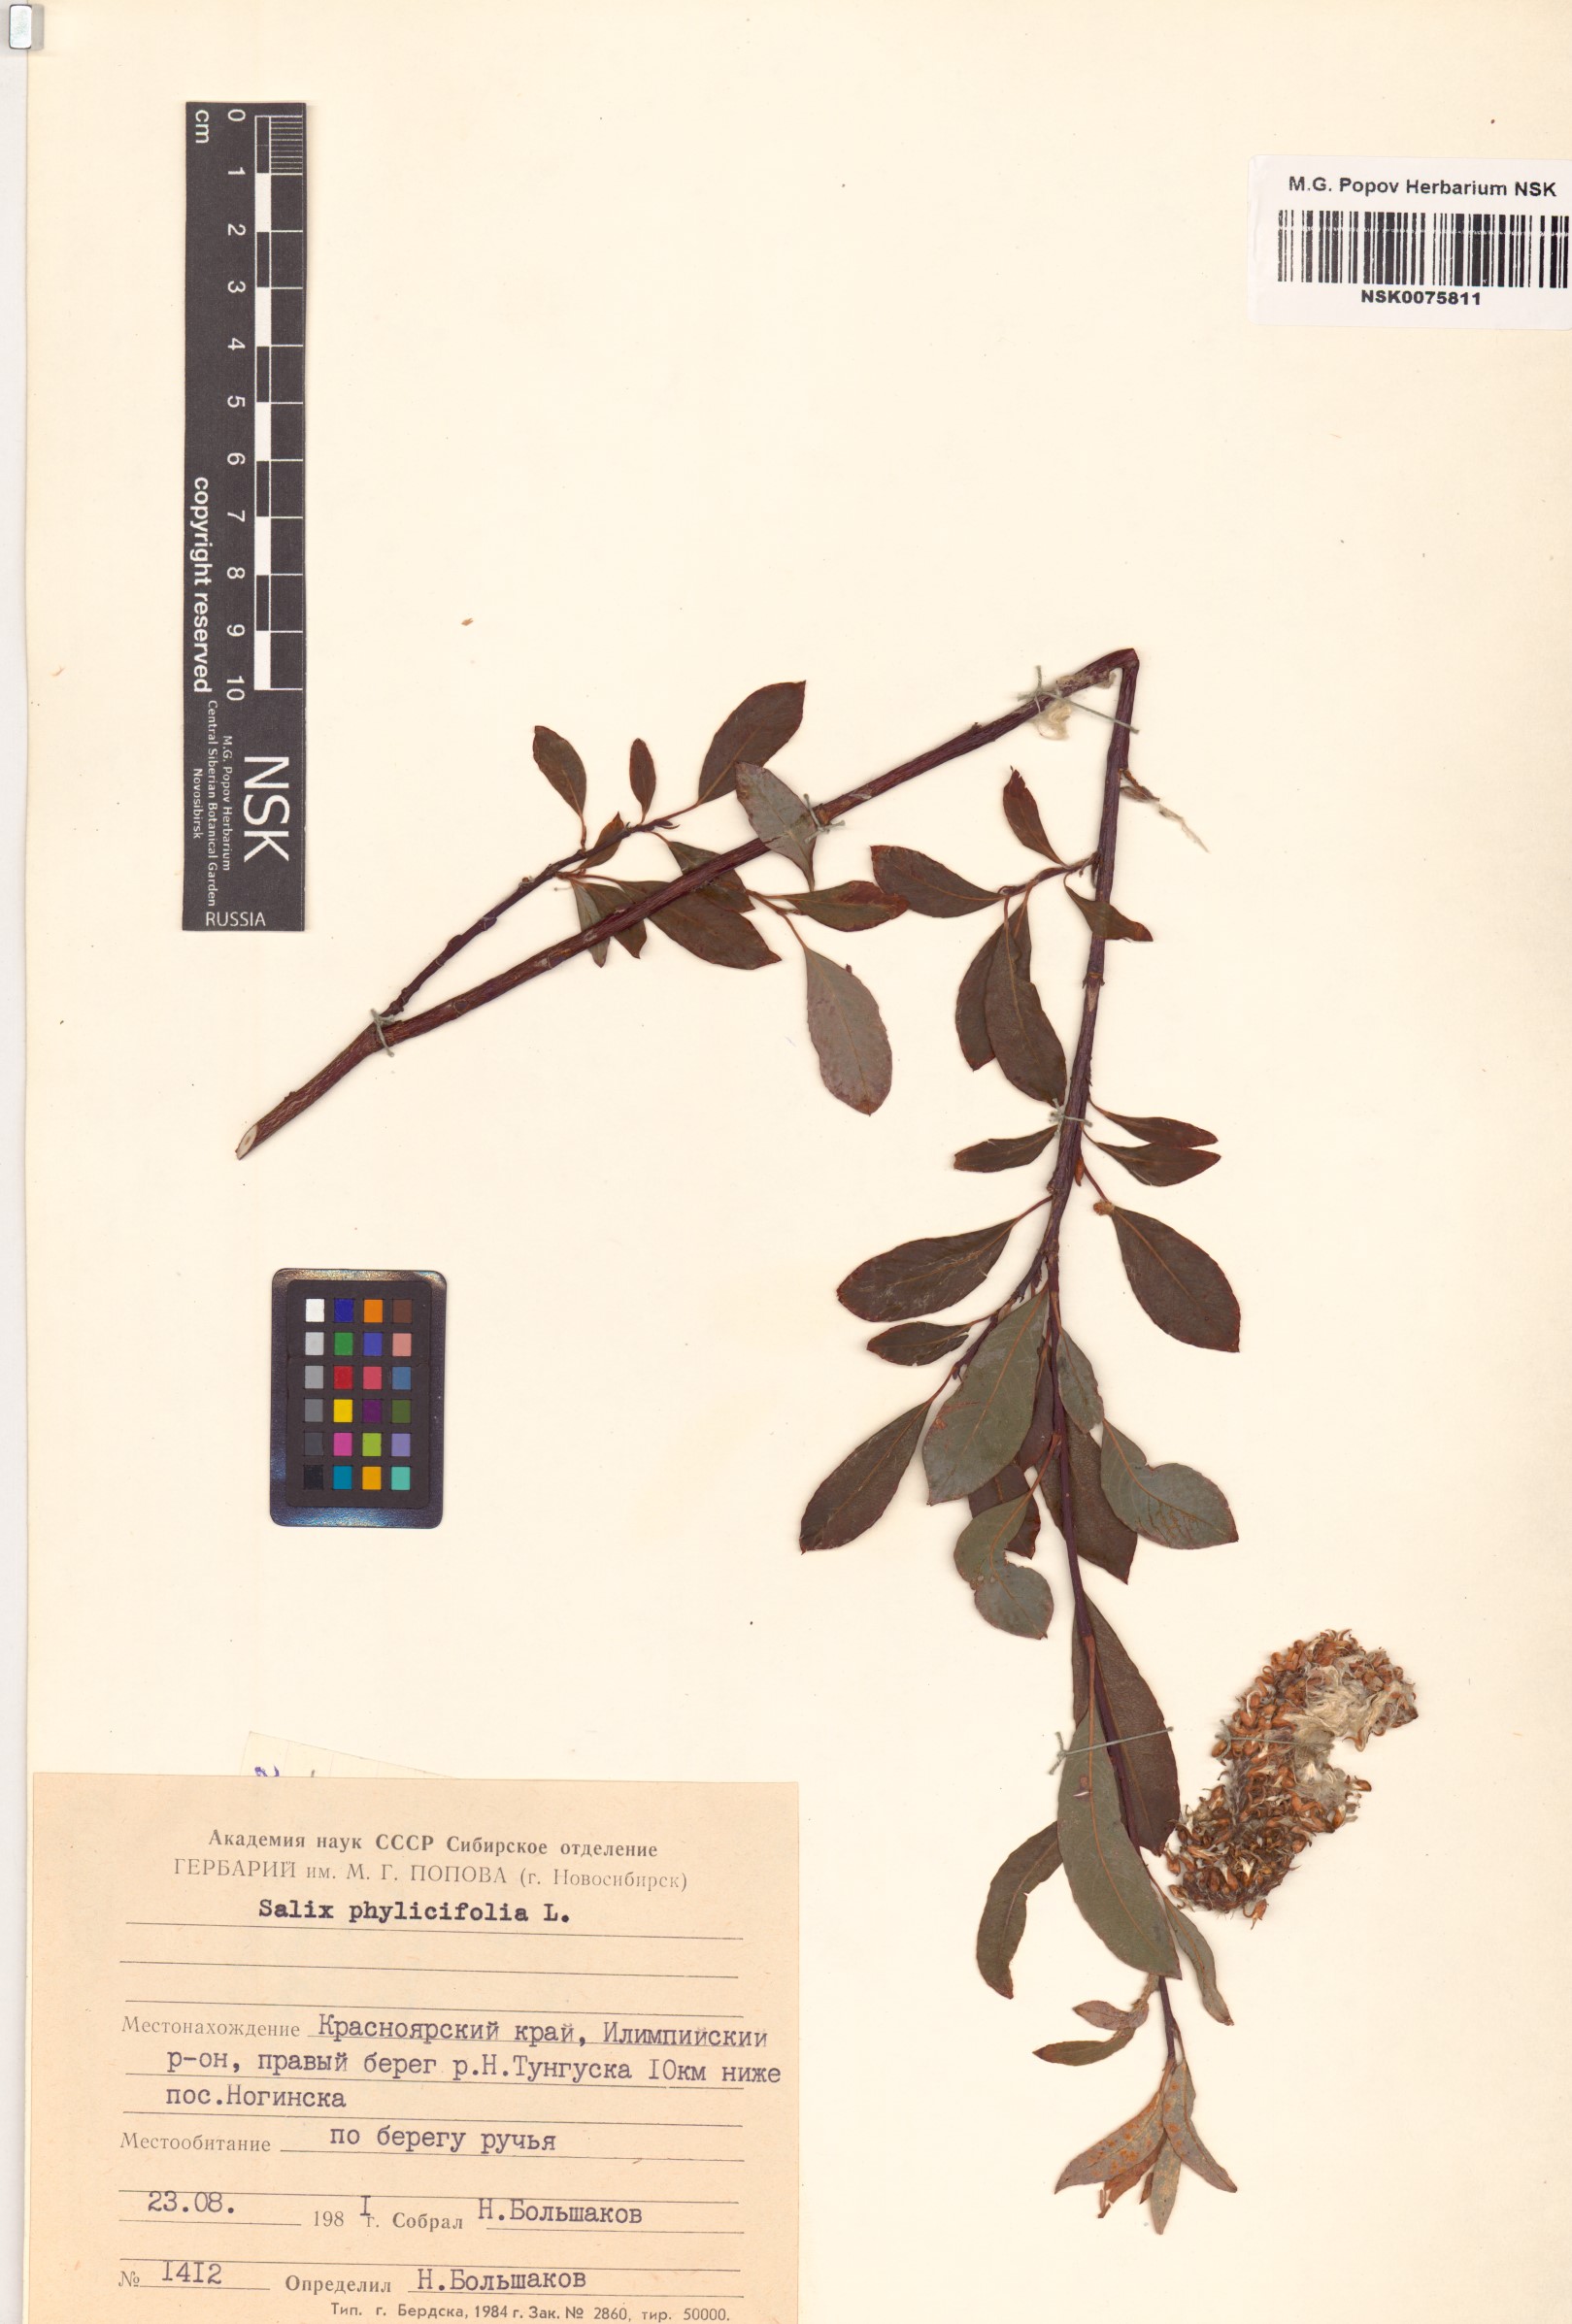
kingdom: Plantae
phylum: Tracheophyta
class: Magnoliopsida
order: Malpighiales
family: Salicaceae
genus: Salix
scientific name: Salix phylicifolia
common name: Tea-leaved willow
